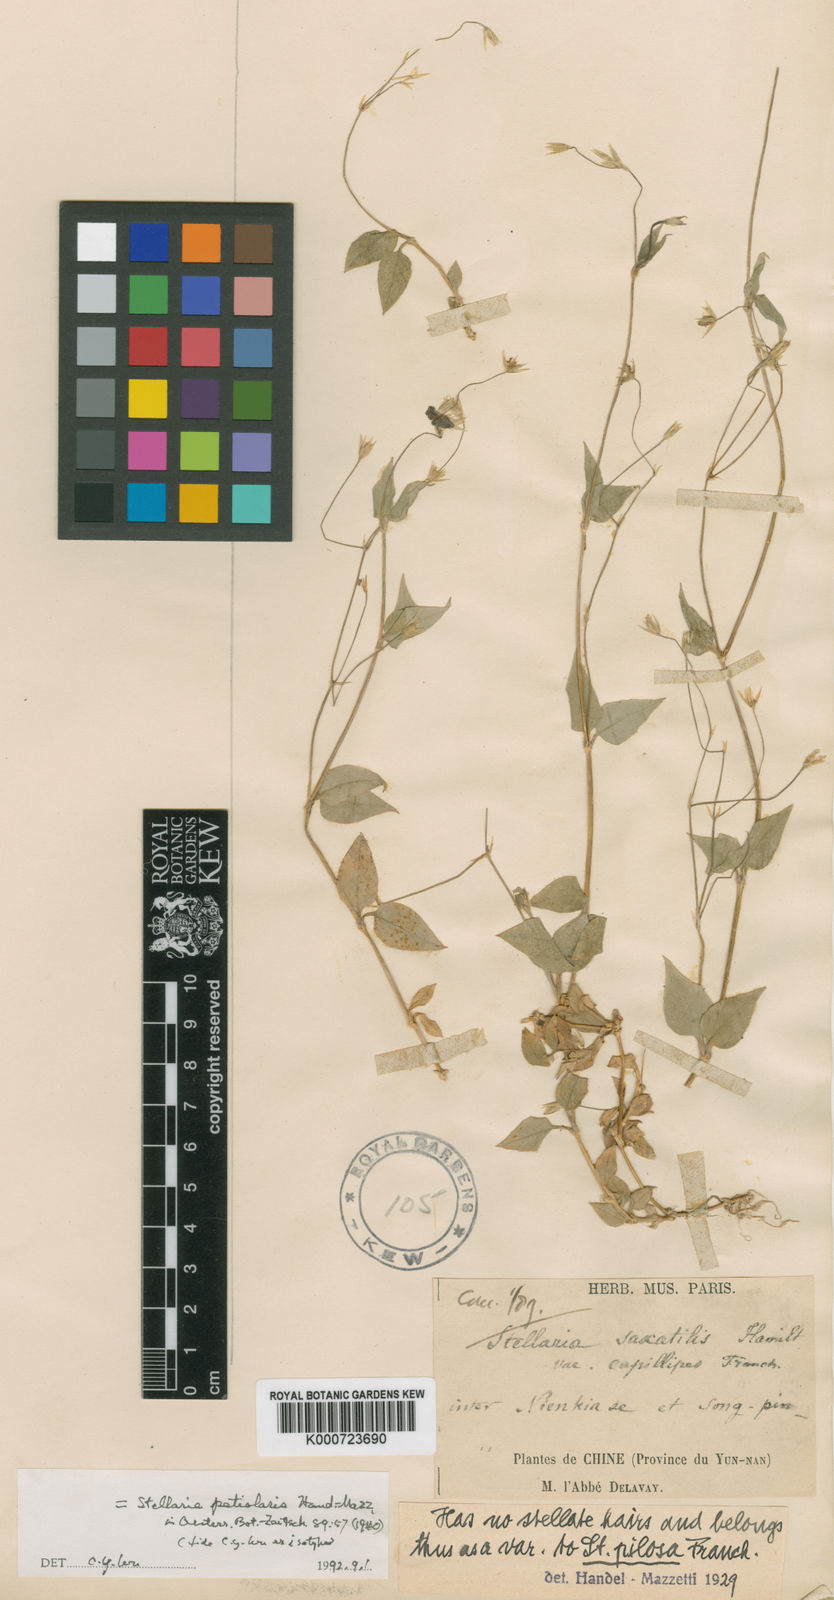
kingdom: Plantae
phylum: Tracheophyta
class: Magnoliopsida
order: Caryophyllales
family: Caryophyllaceae
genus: Stellaria
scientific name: Stellaria vestita
